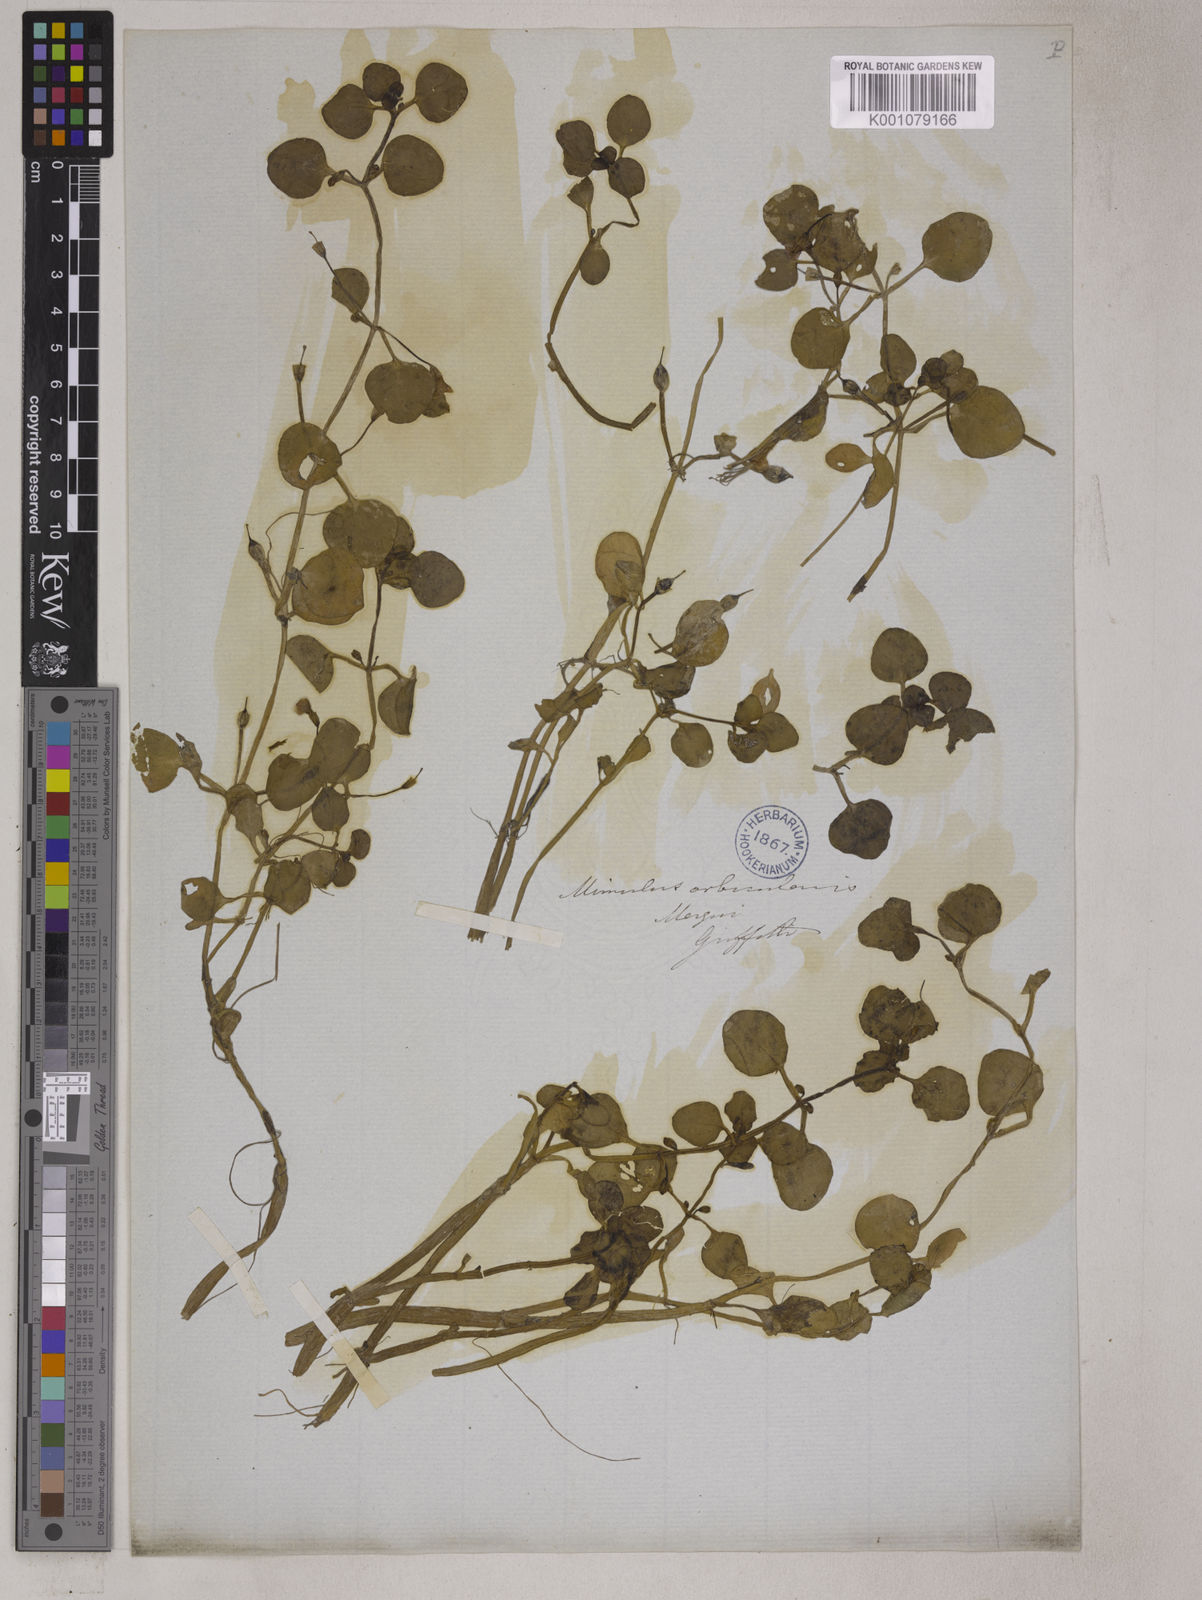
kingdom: Plantae
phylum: Tracheophyta
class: Magnoliopsida
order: Lamiales
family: Phrymaceae
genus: Mimulus
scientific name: Mimulus orbicularis
